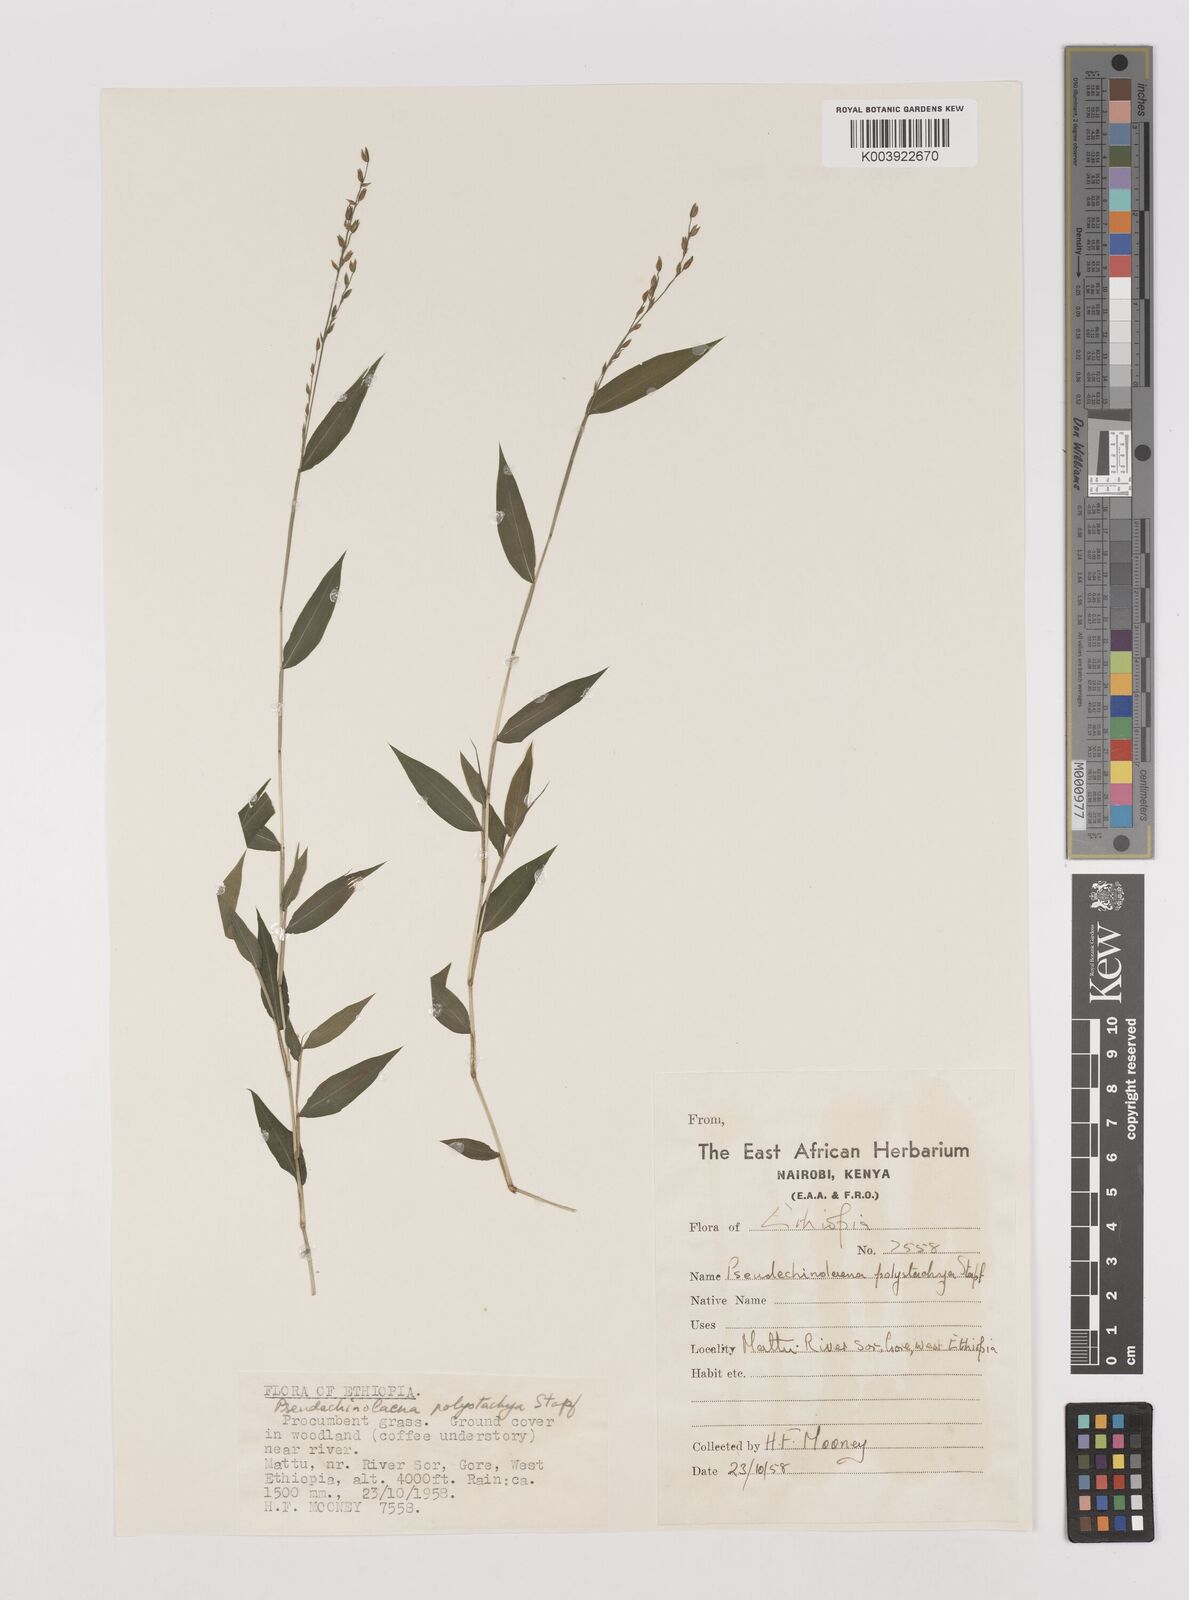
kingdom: Plantae
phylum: Tracheophyta
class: Liliopsida
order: Poales
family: Poaceae
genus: Pseudechinolaena
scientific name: Pseudechinolaena polystachya
